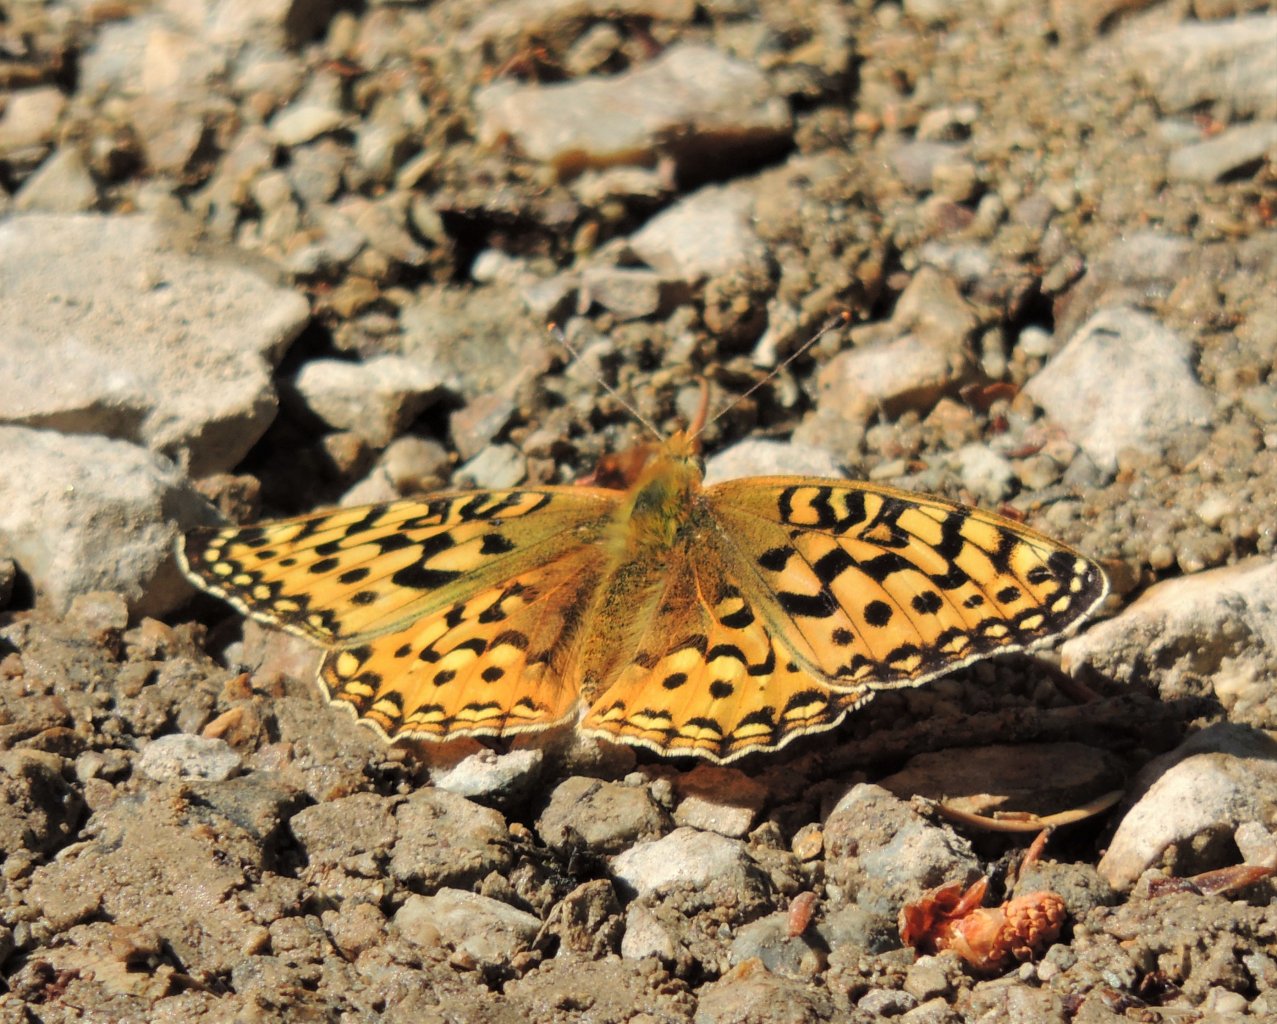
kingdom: Animalia
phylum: Arthropoda
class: Insecta
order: Lepidoptera
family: Nymphalidae
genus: Speyeria
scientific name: Speyeria zerene
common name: Zerene Fritillary
